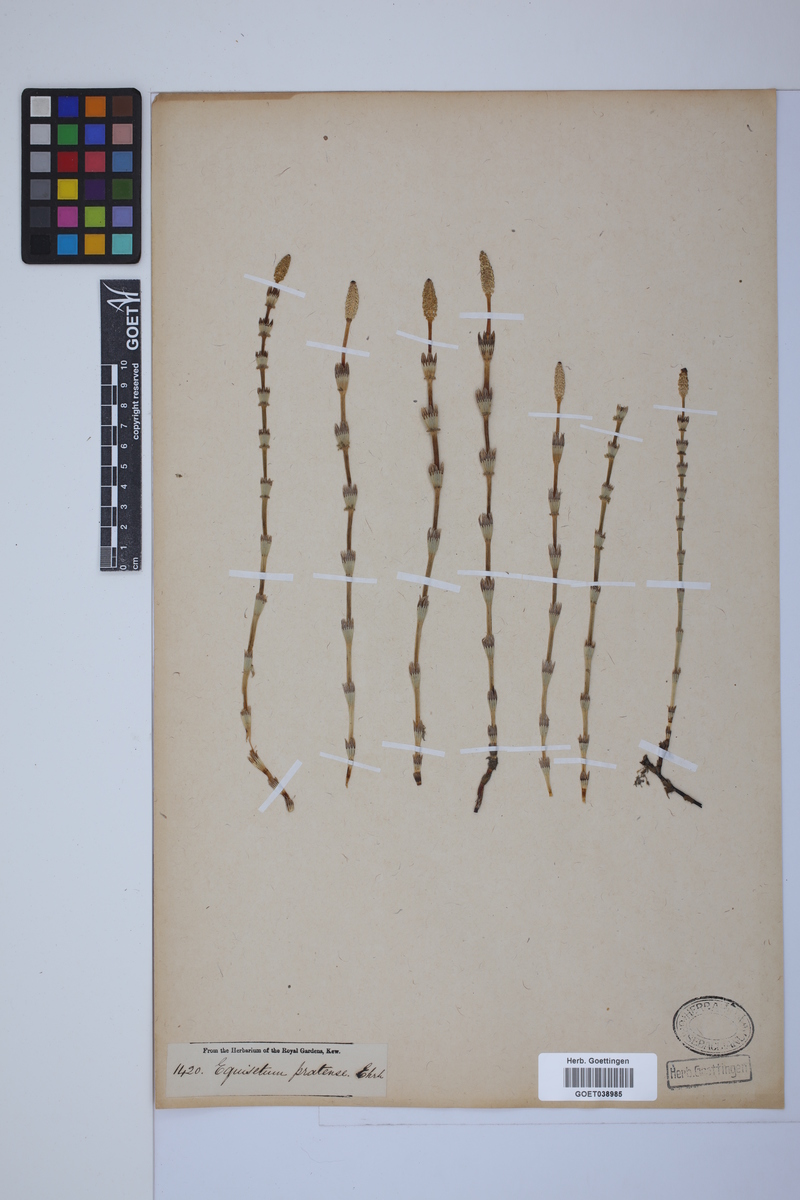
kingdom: Plantae
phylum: Tracheophyta
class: Polypodiopsida
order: Equisetales
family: Equisetaceae
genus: Equisetum
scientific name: Equisetum pratense
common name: Meadow horsetail
